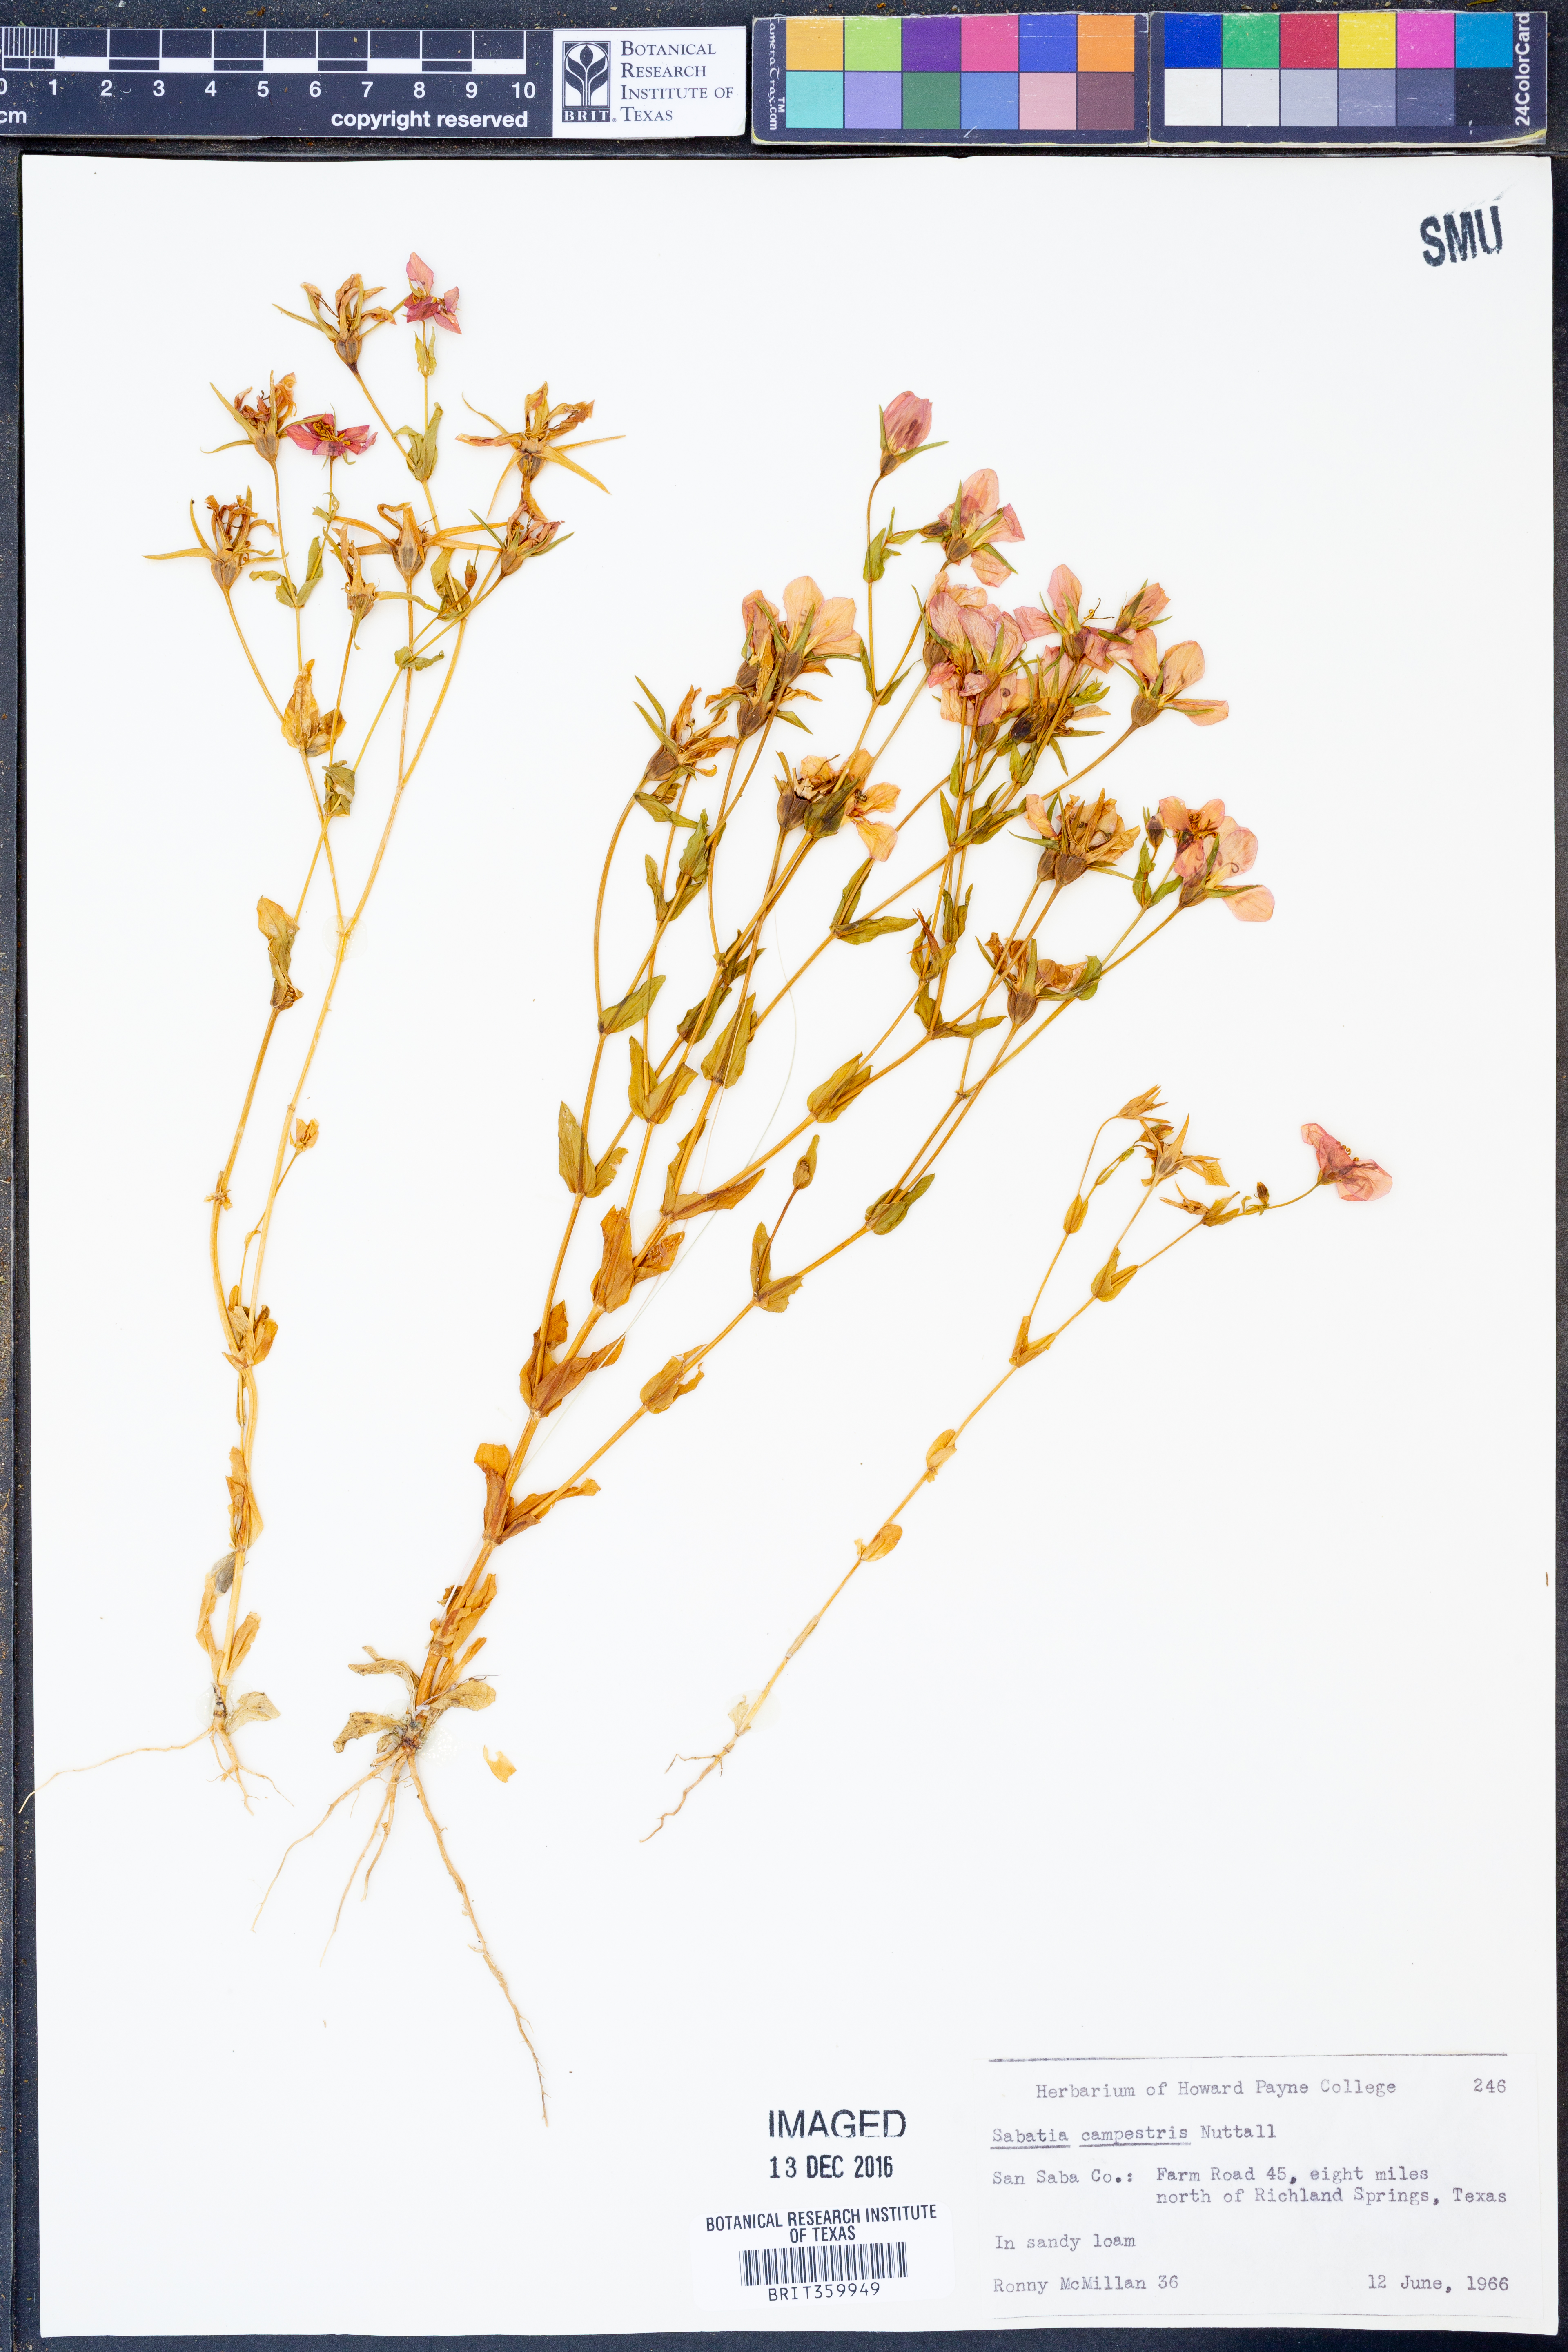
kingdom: Plantae
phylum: Tracheophyta
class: Magnoliopsida
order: Gentianales
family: Gentianaceae
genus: Sabatia
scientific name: Sabatia campestris
